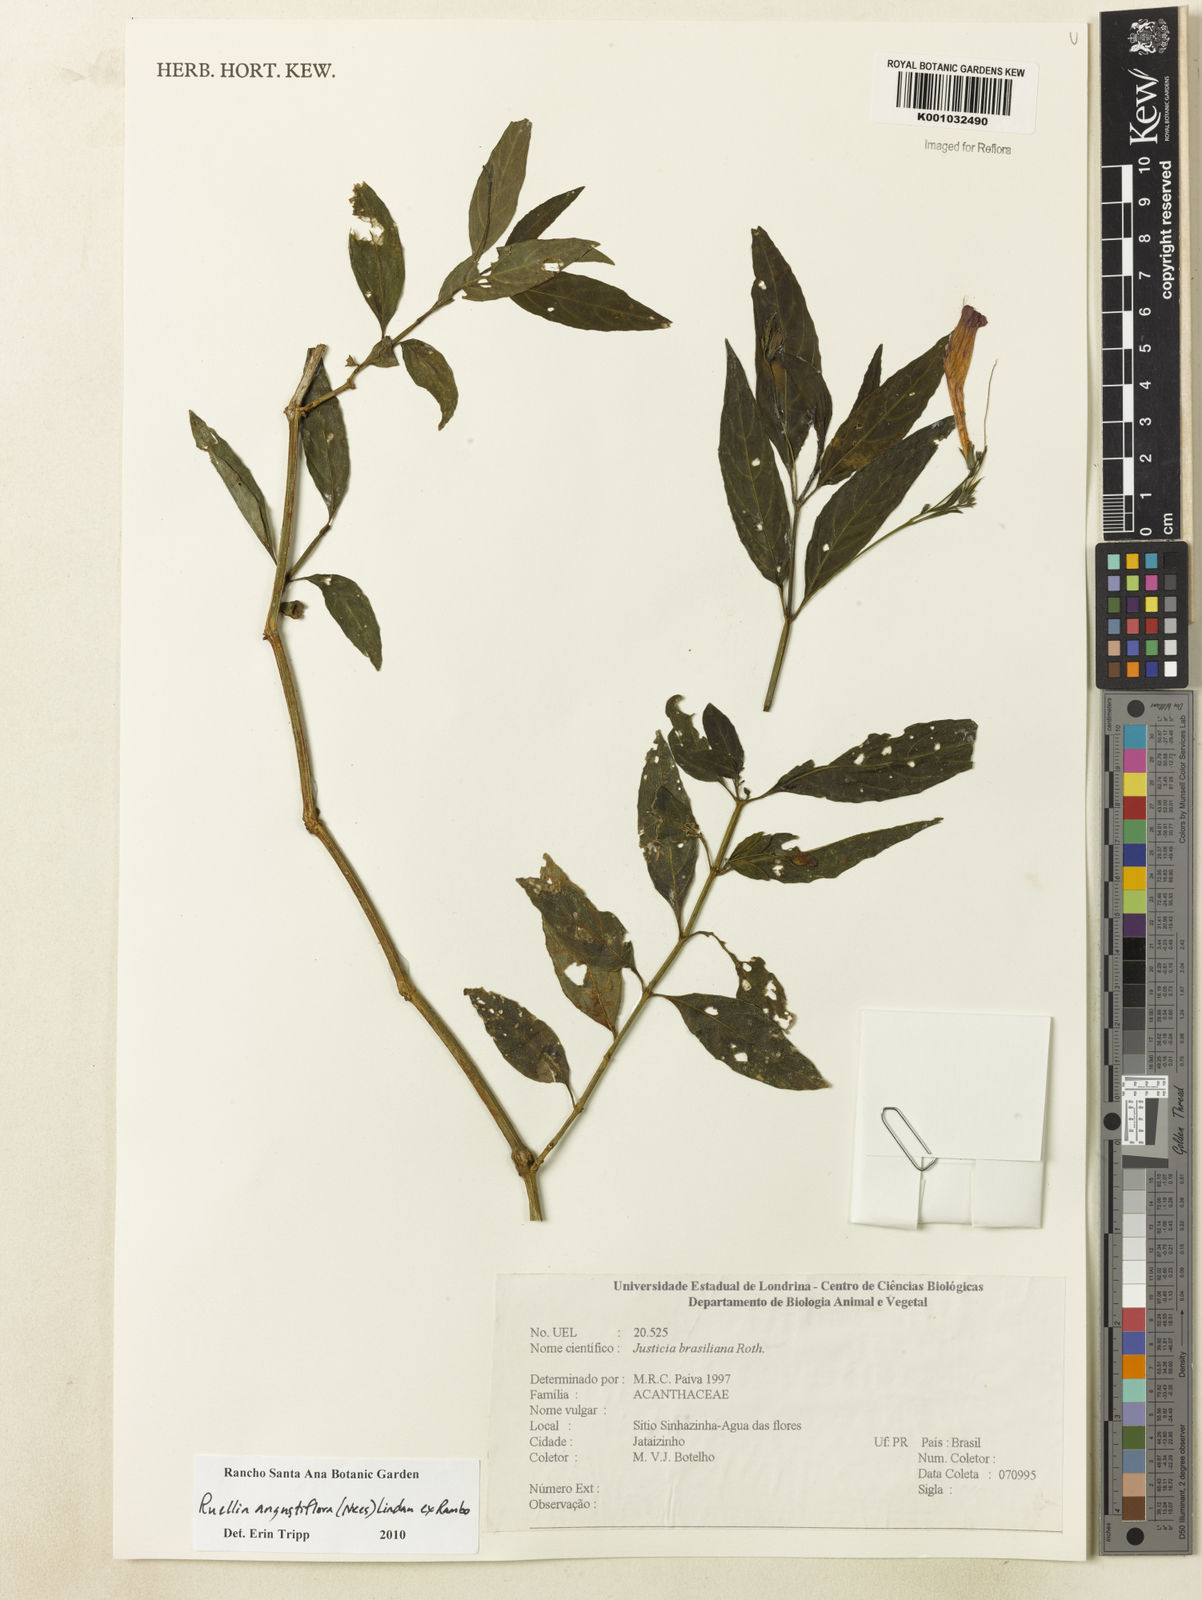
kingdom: Plantae
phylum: Tracheophyta
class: Magnoliopsida
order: Lamiales
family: Acanthaceae
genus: Ruellia
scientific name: Ruellia angustiflora
